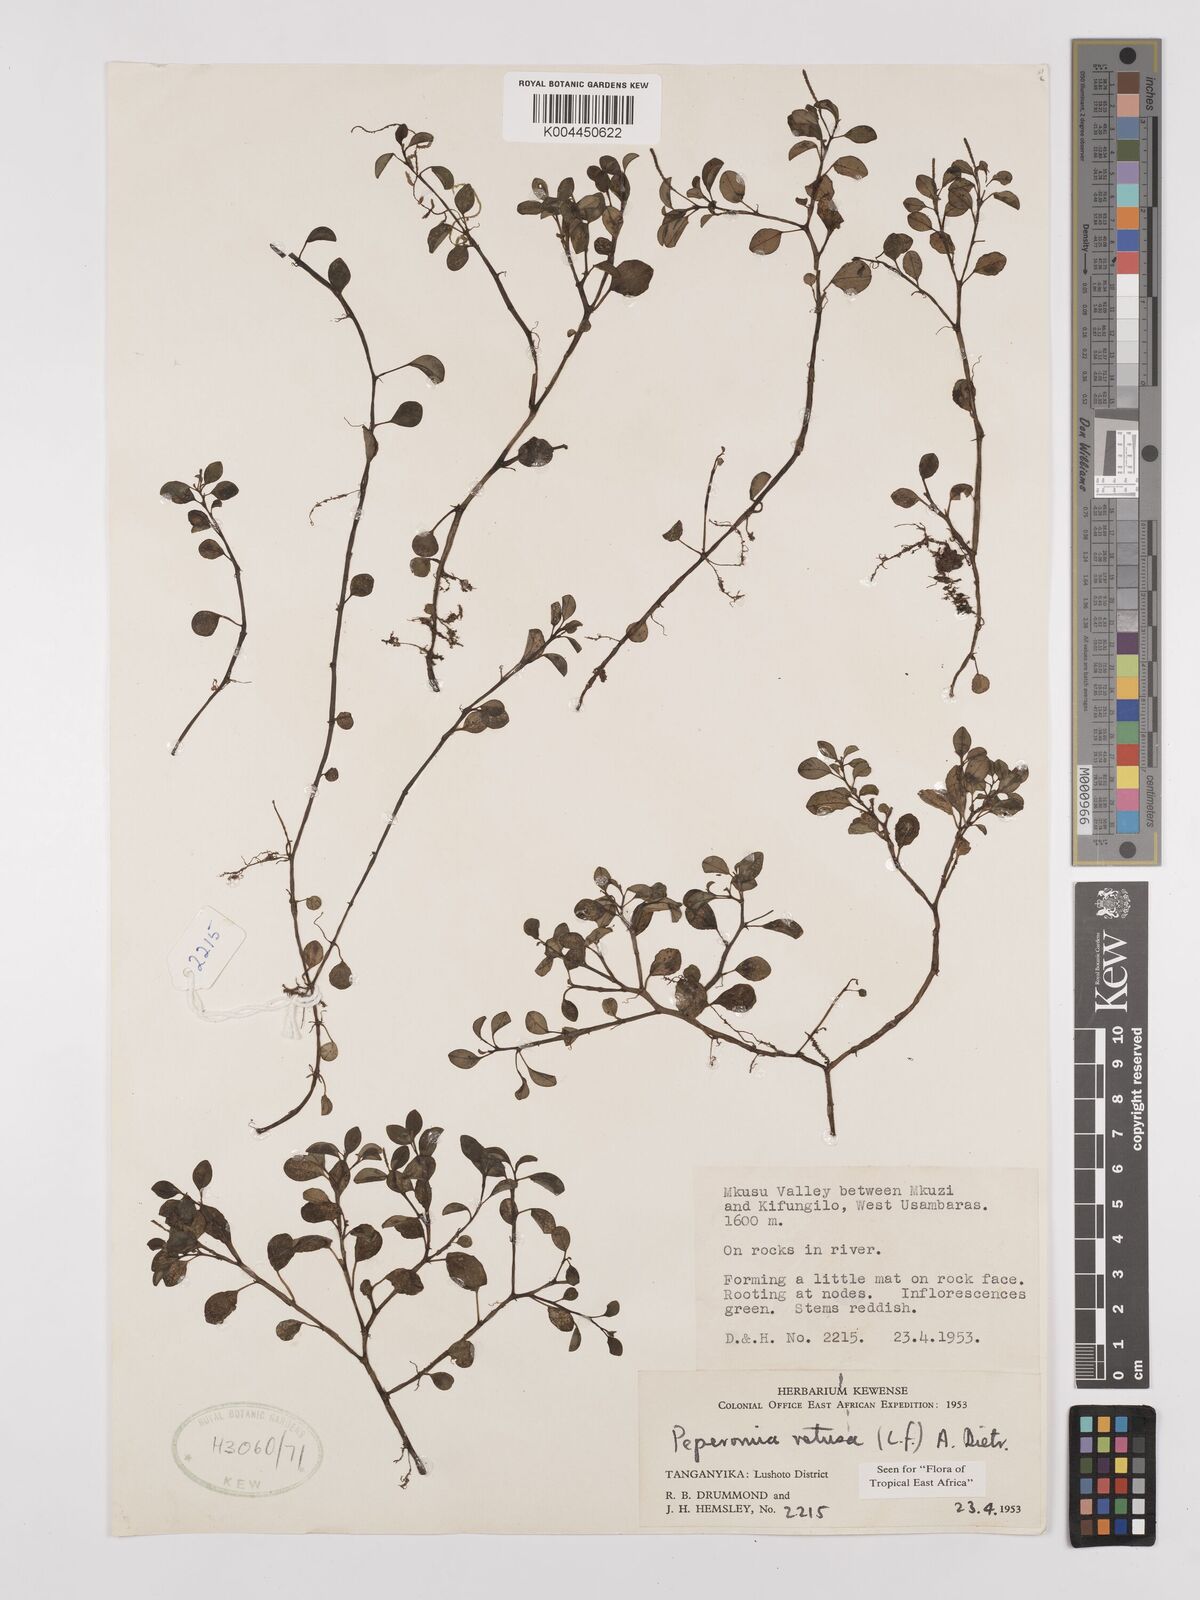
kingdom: Plantae
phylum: Tracheophyta
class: Magnoliopsida
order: Piperales
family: Piperaceae
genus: Peperomia
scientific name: Peperomia retusa
